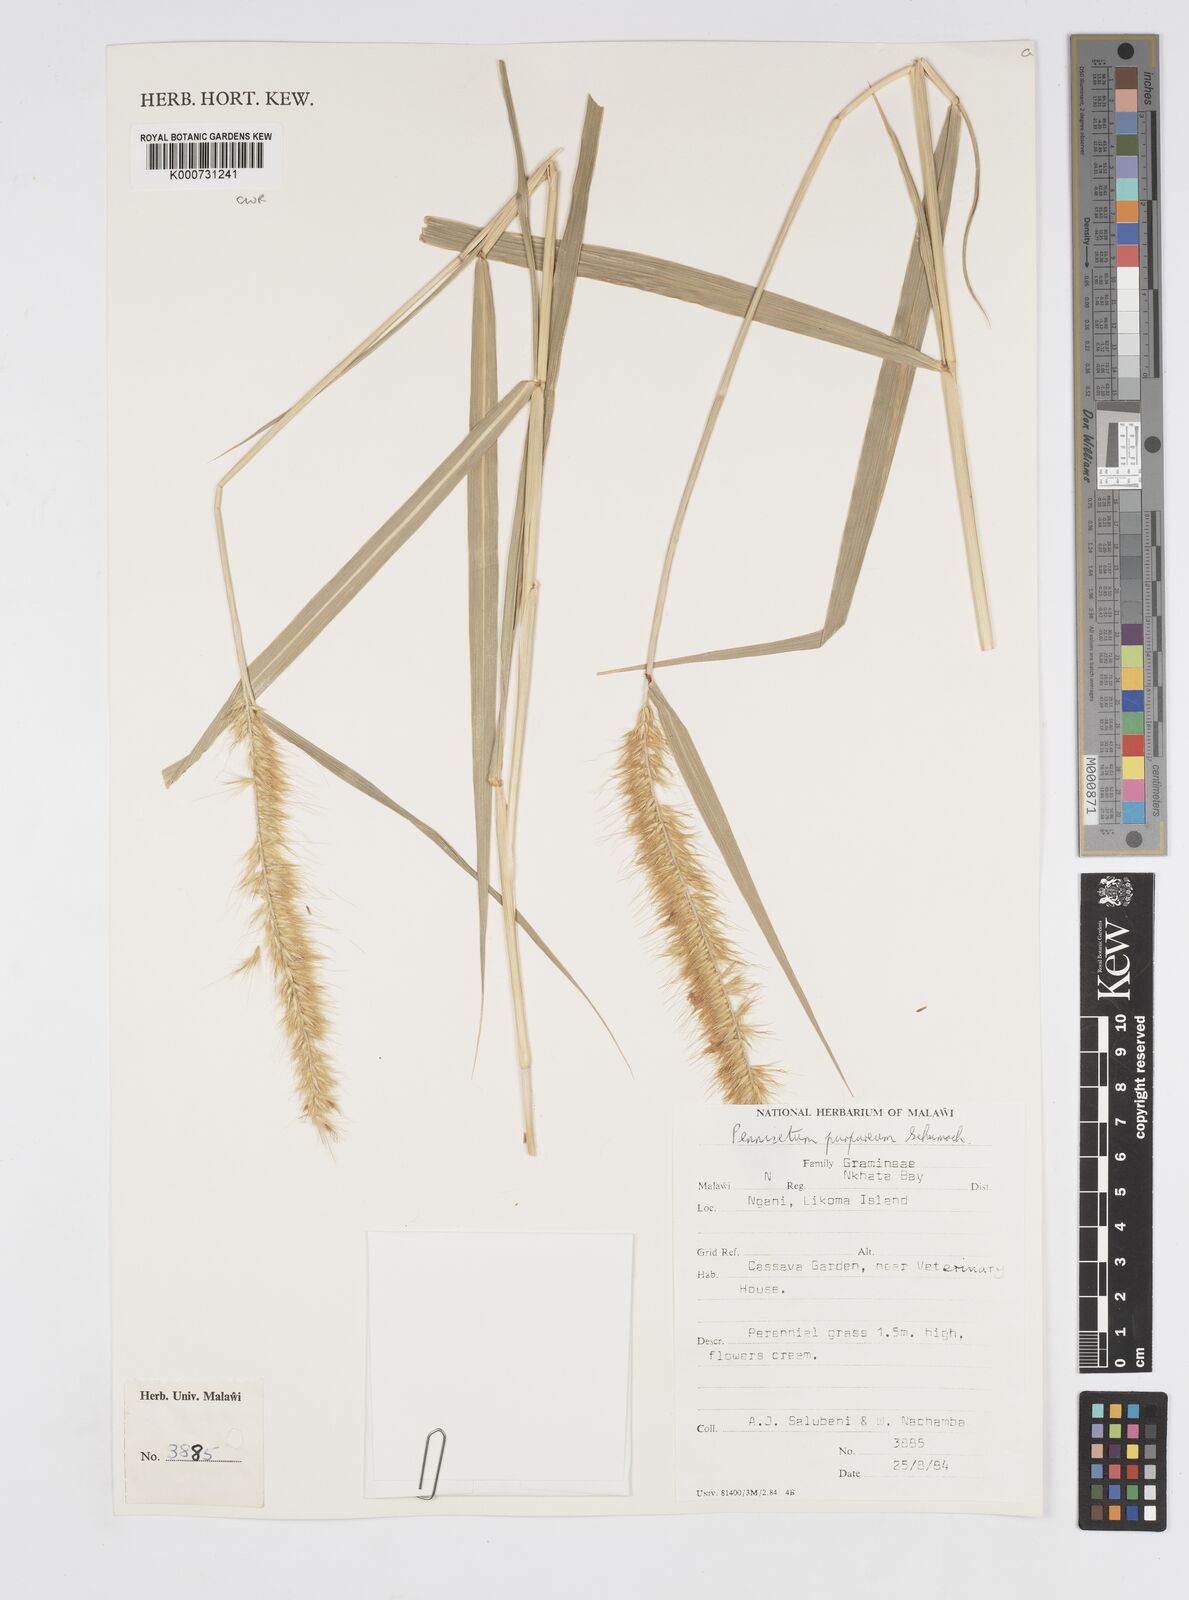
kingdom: Plantae
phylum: Tracheophyta
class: Liliopsida
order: Poales
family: Poaceae
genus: Cenchrus
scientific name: Cenchrus purpureus
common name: Elephant grass
